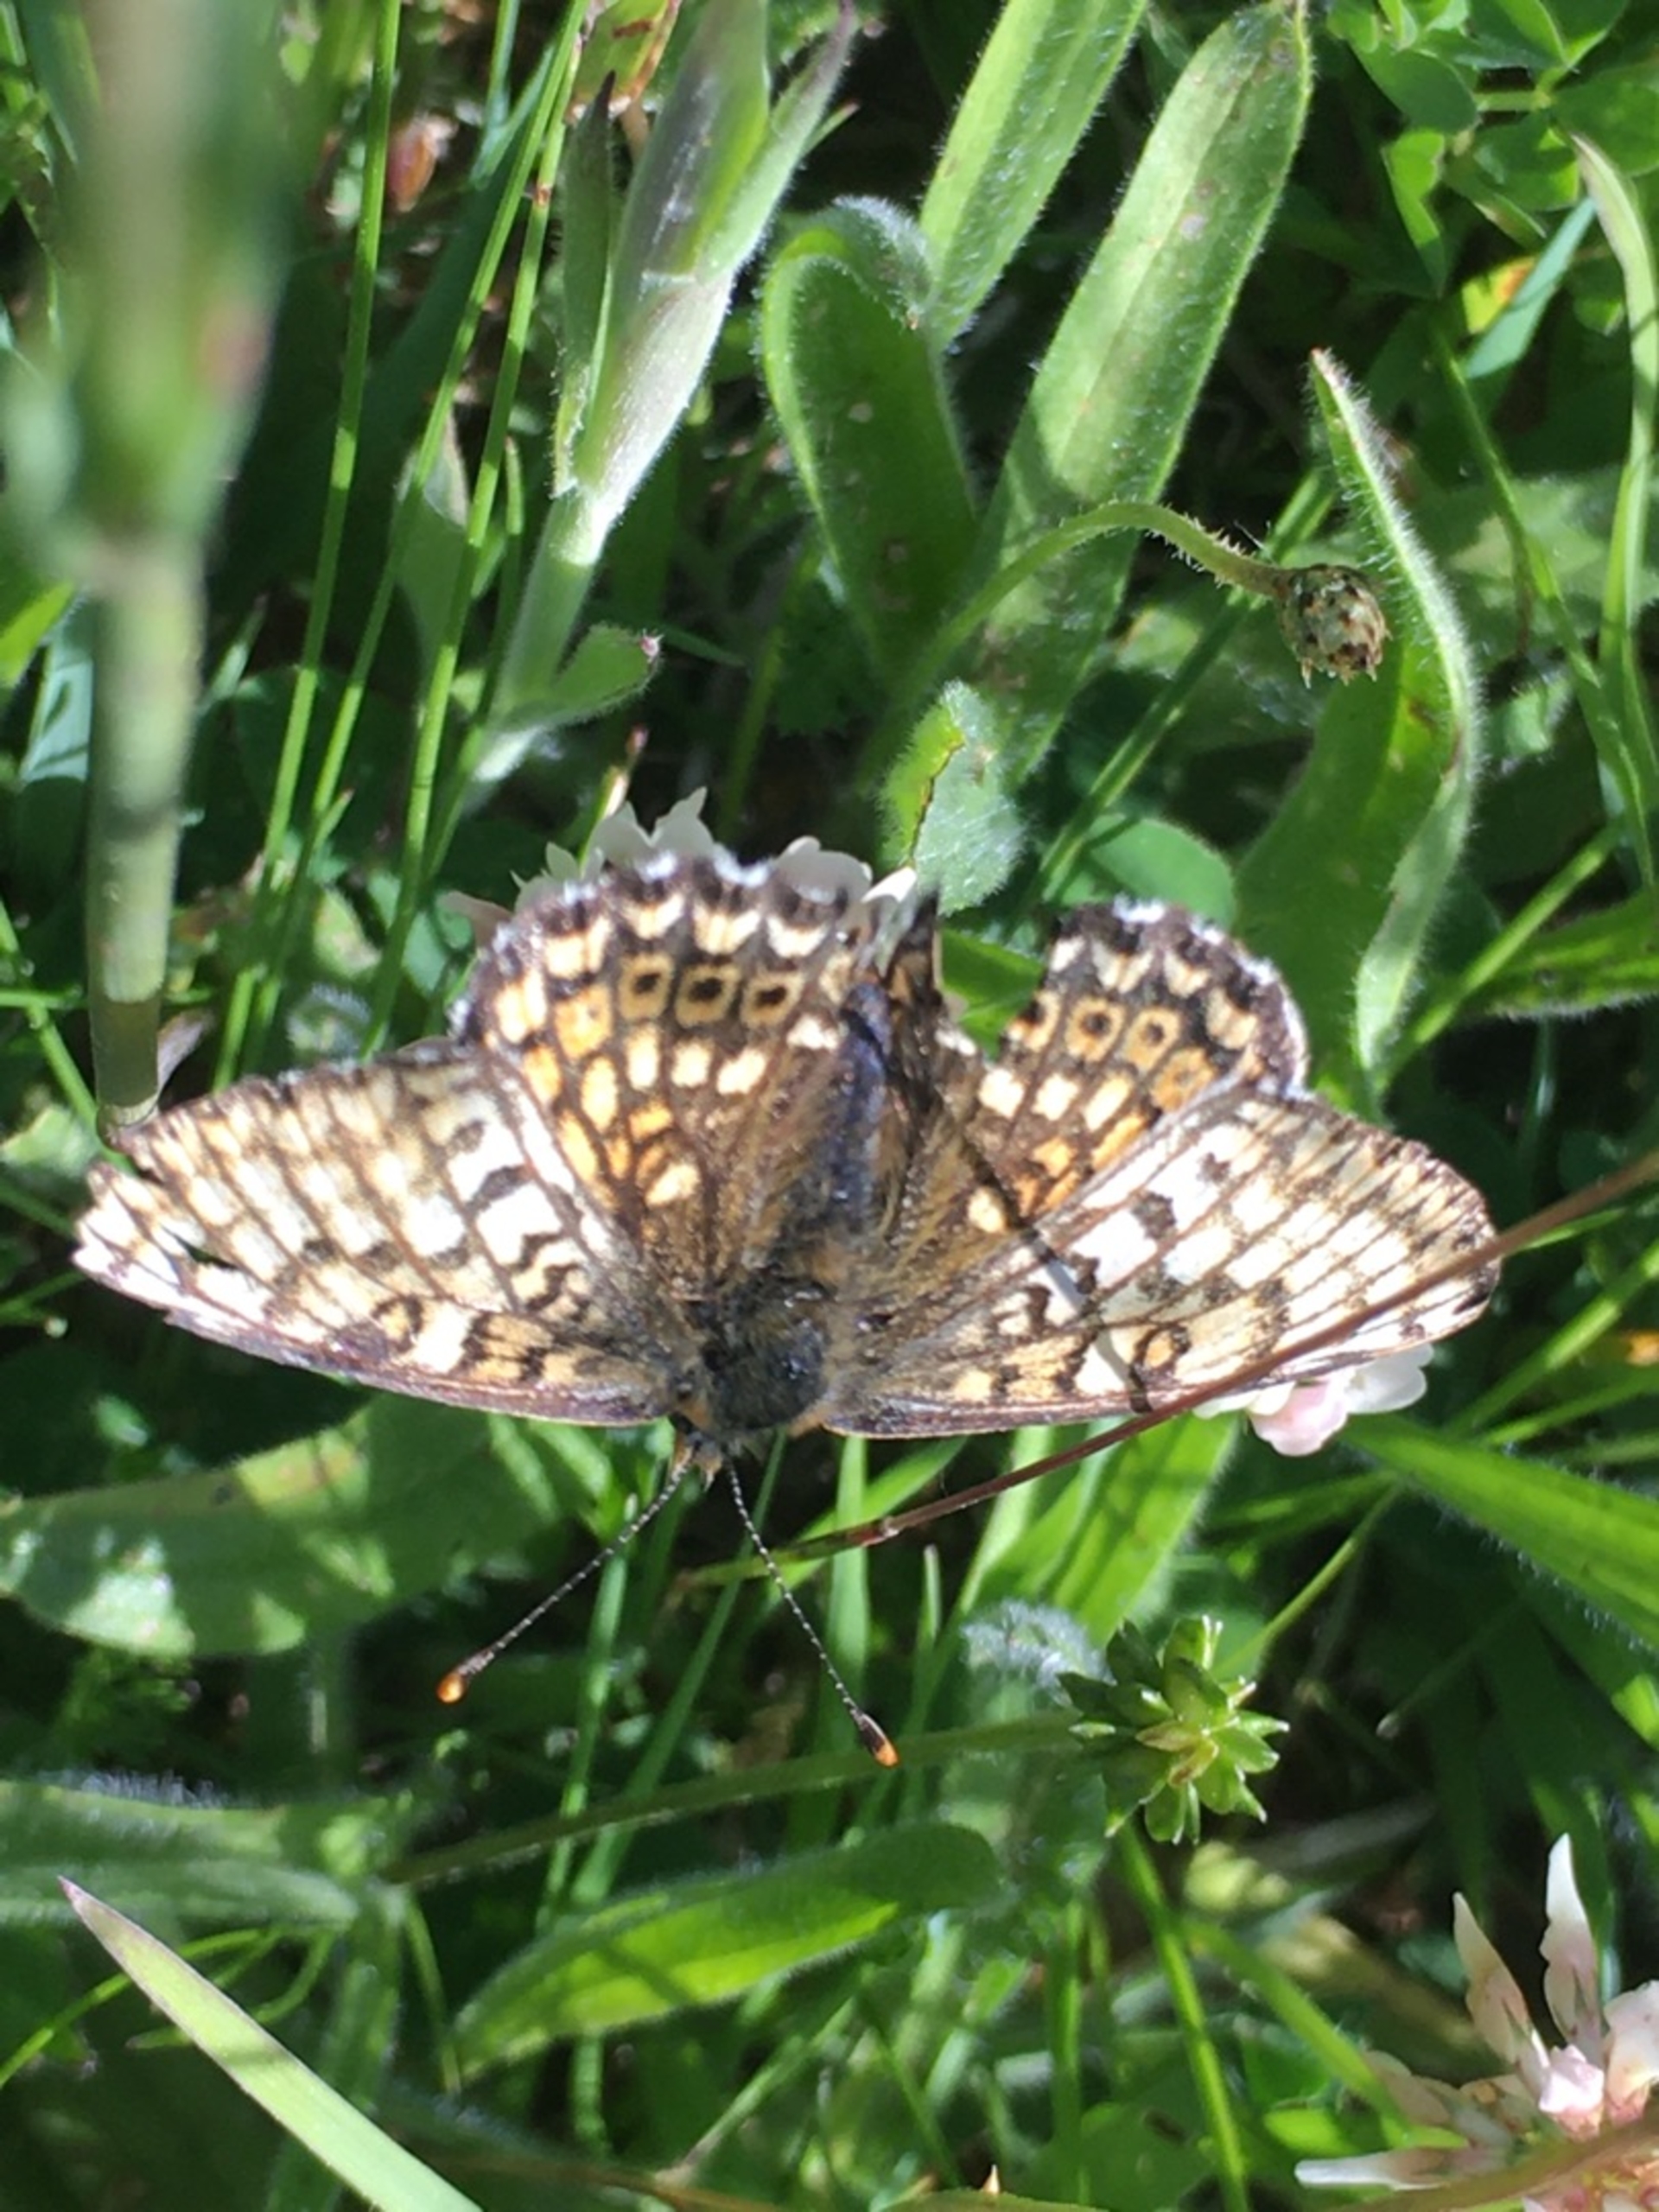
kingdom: Animalia
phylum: Arthropoda
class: Insecta
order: Lepidoptera
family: Nymphalidae
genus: Melitaea
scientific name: Melitaea cinxia
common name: Okkergul pletvinge
